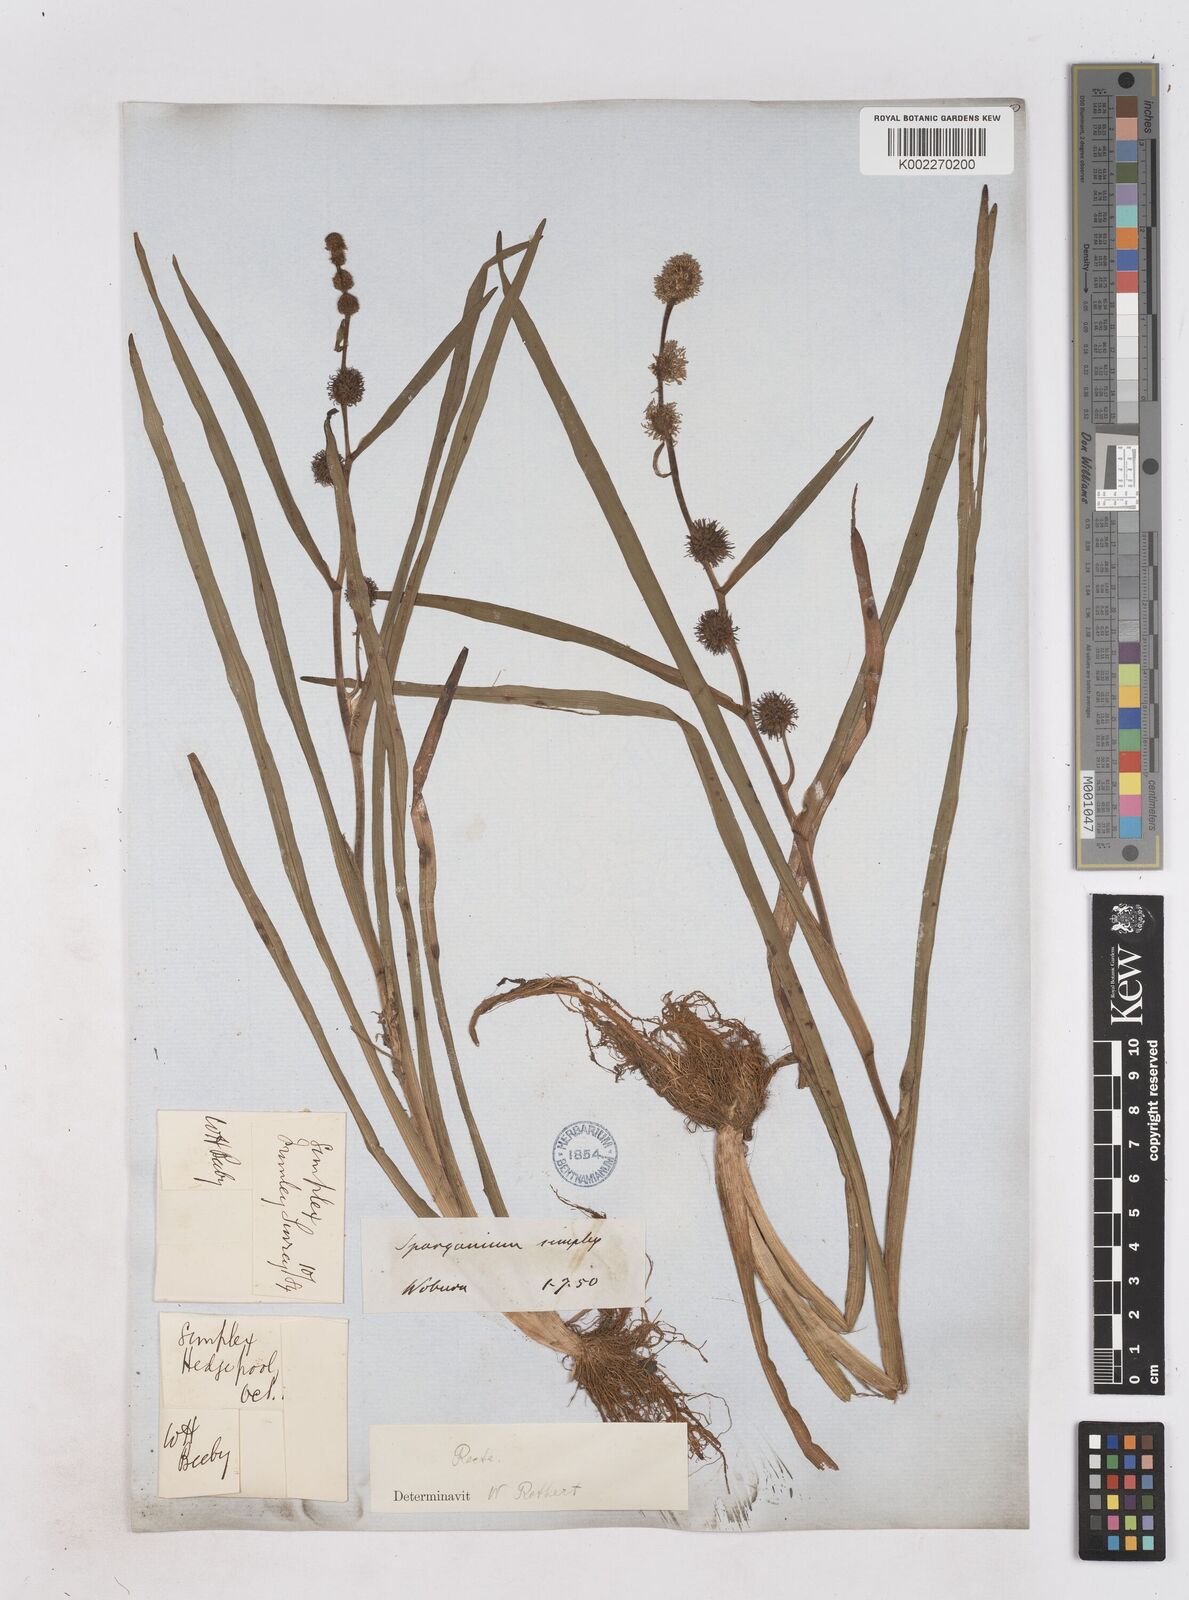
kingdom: Plantae
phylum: Tracheophyta
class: Liliopsida
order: Poales
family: Typhaceae
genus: Sparganium
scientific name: Sparganium angustifolium
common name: Floating bur-reed
